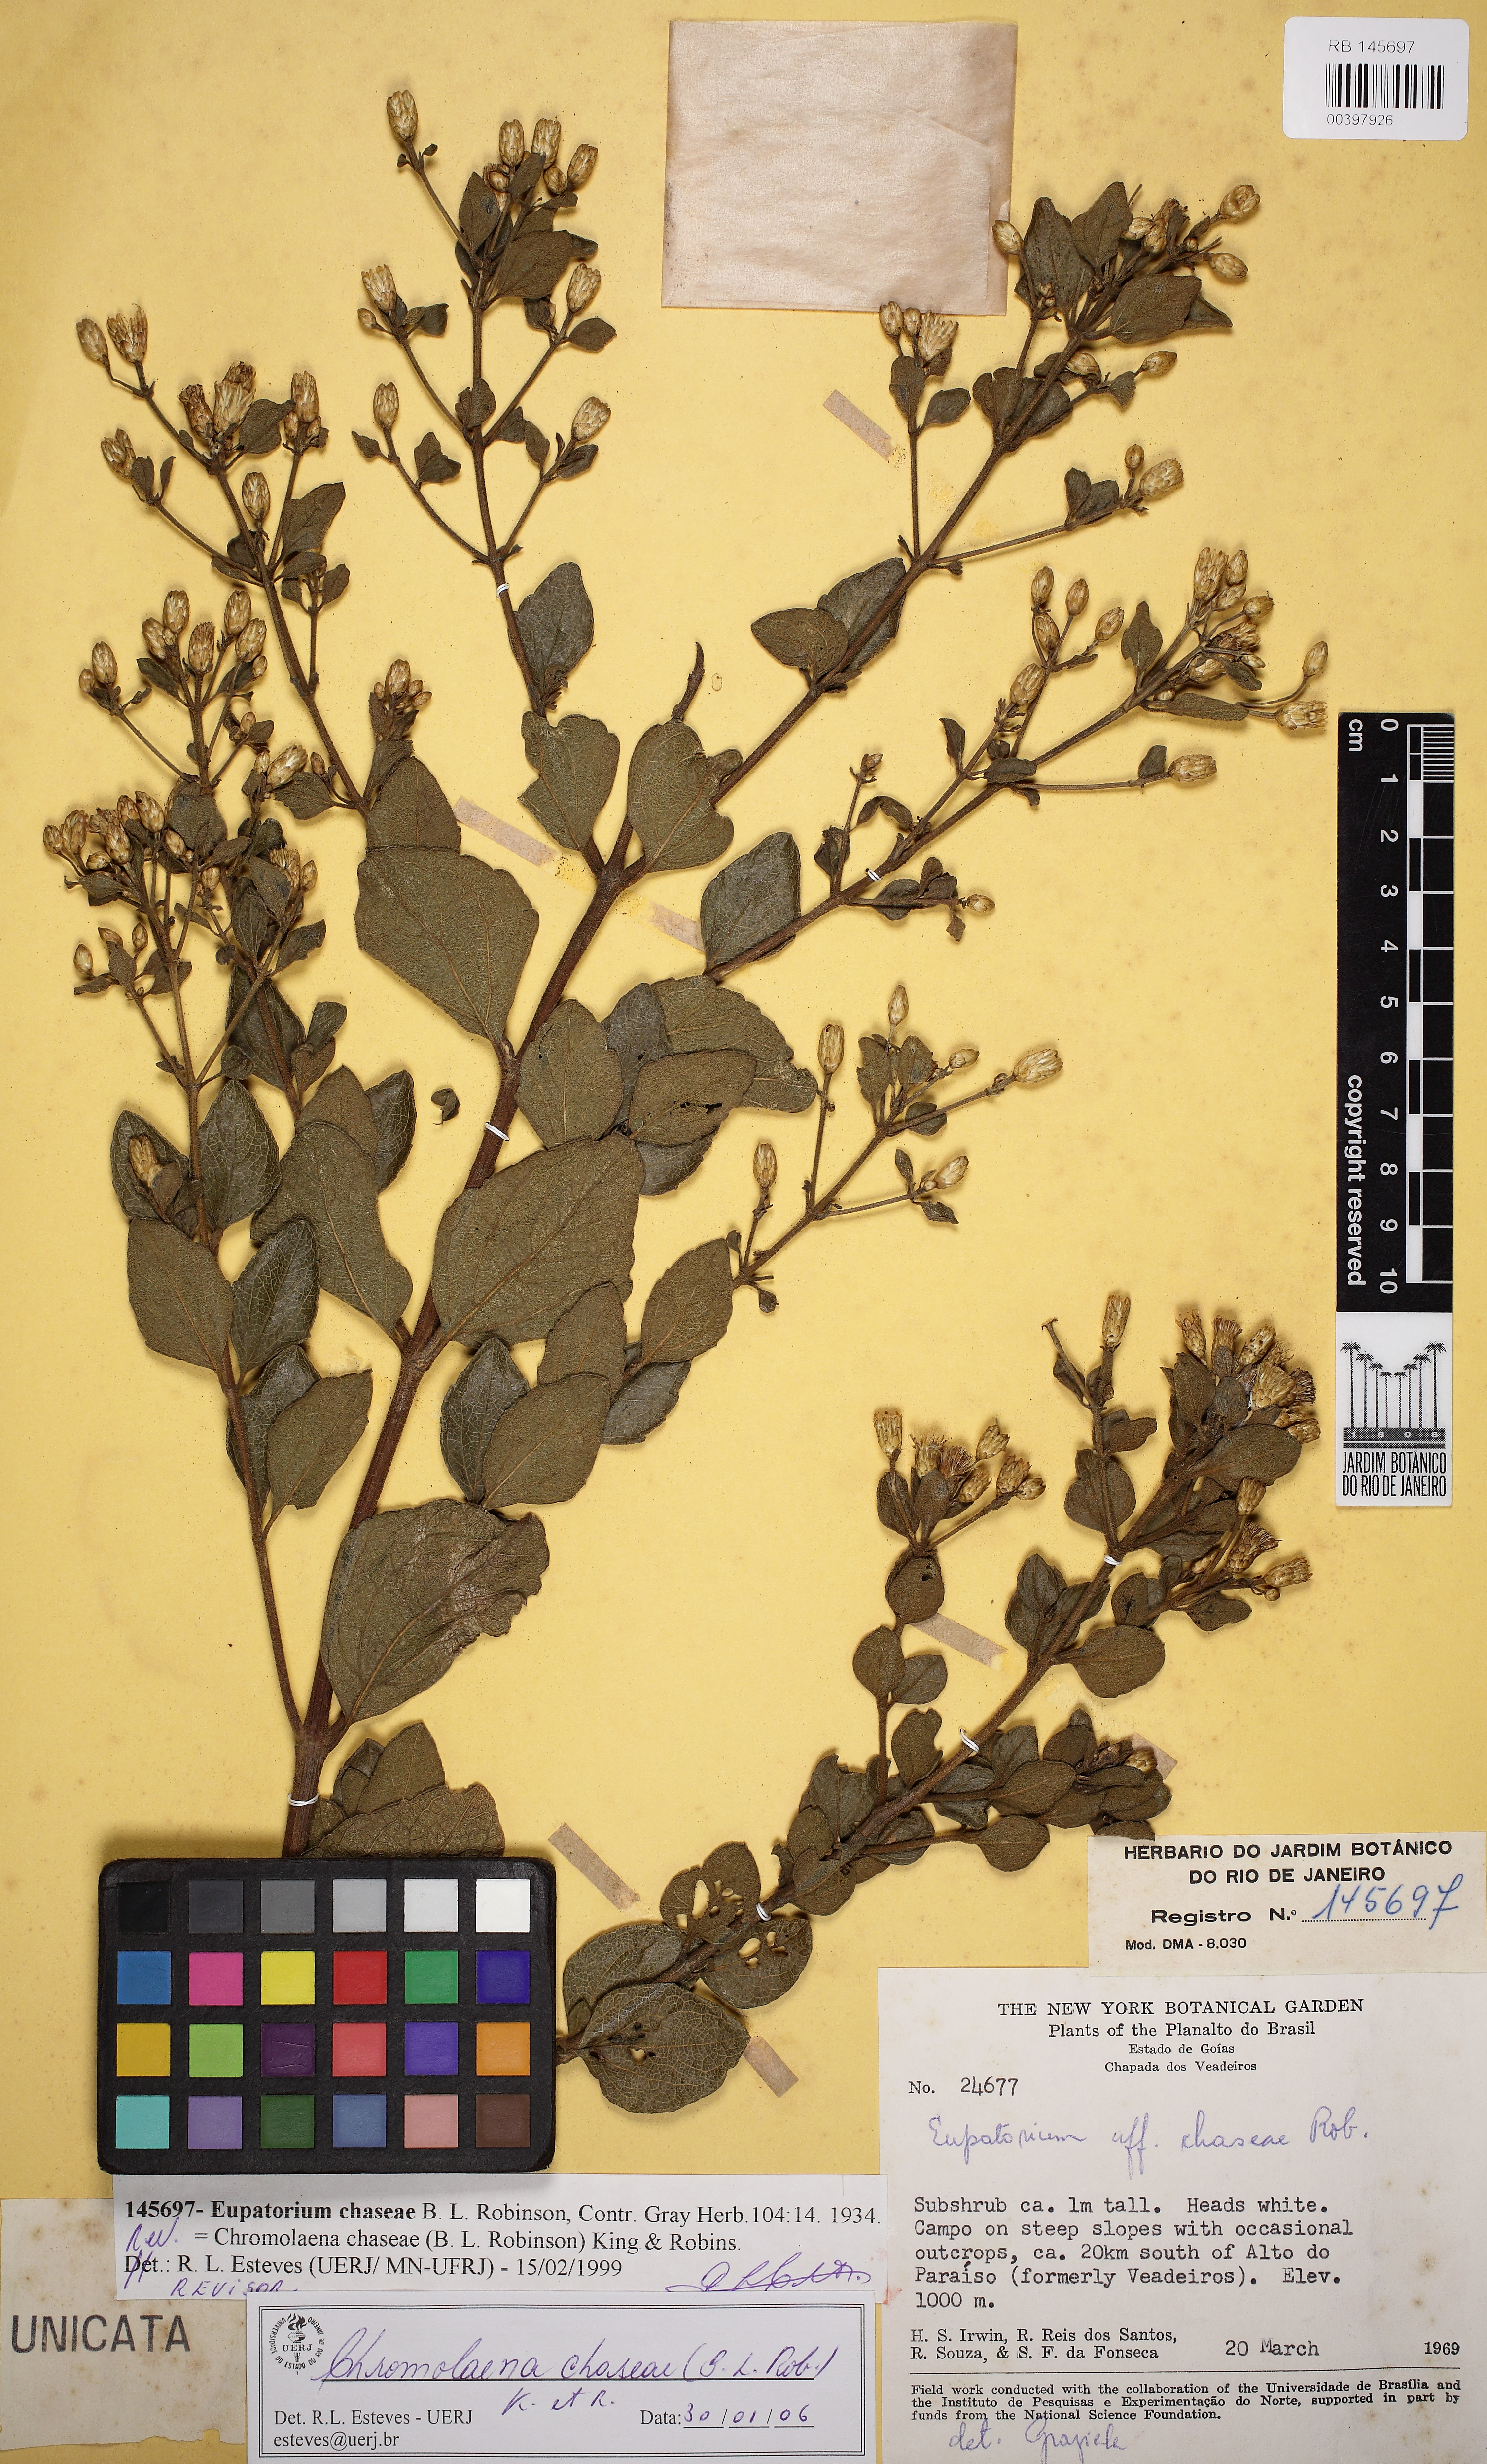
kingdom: Plantae
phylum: Tracheophyta
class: Magnoliopsida
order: Asterales
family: Asteraceae
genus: Chromolaena
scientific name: Chromolaena chaseae
